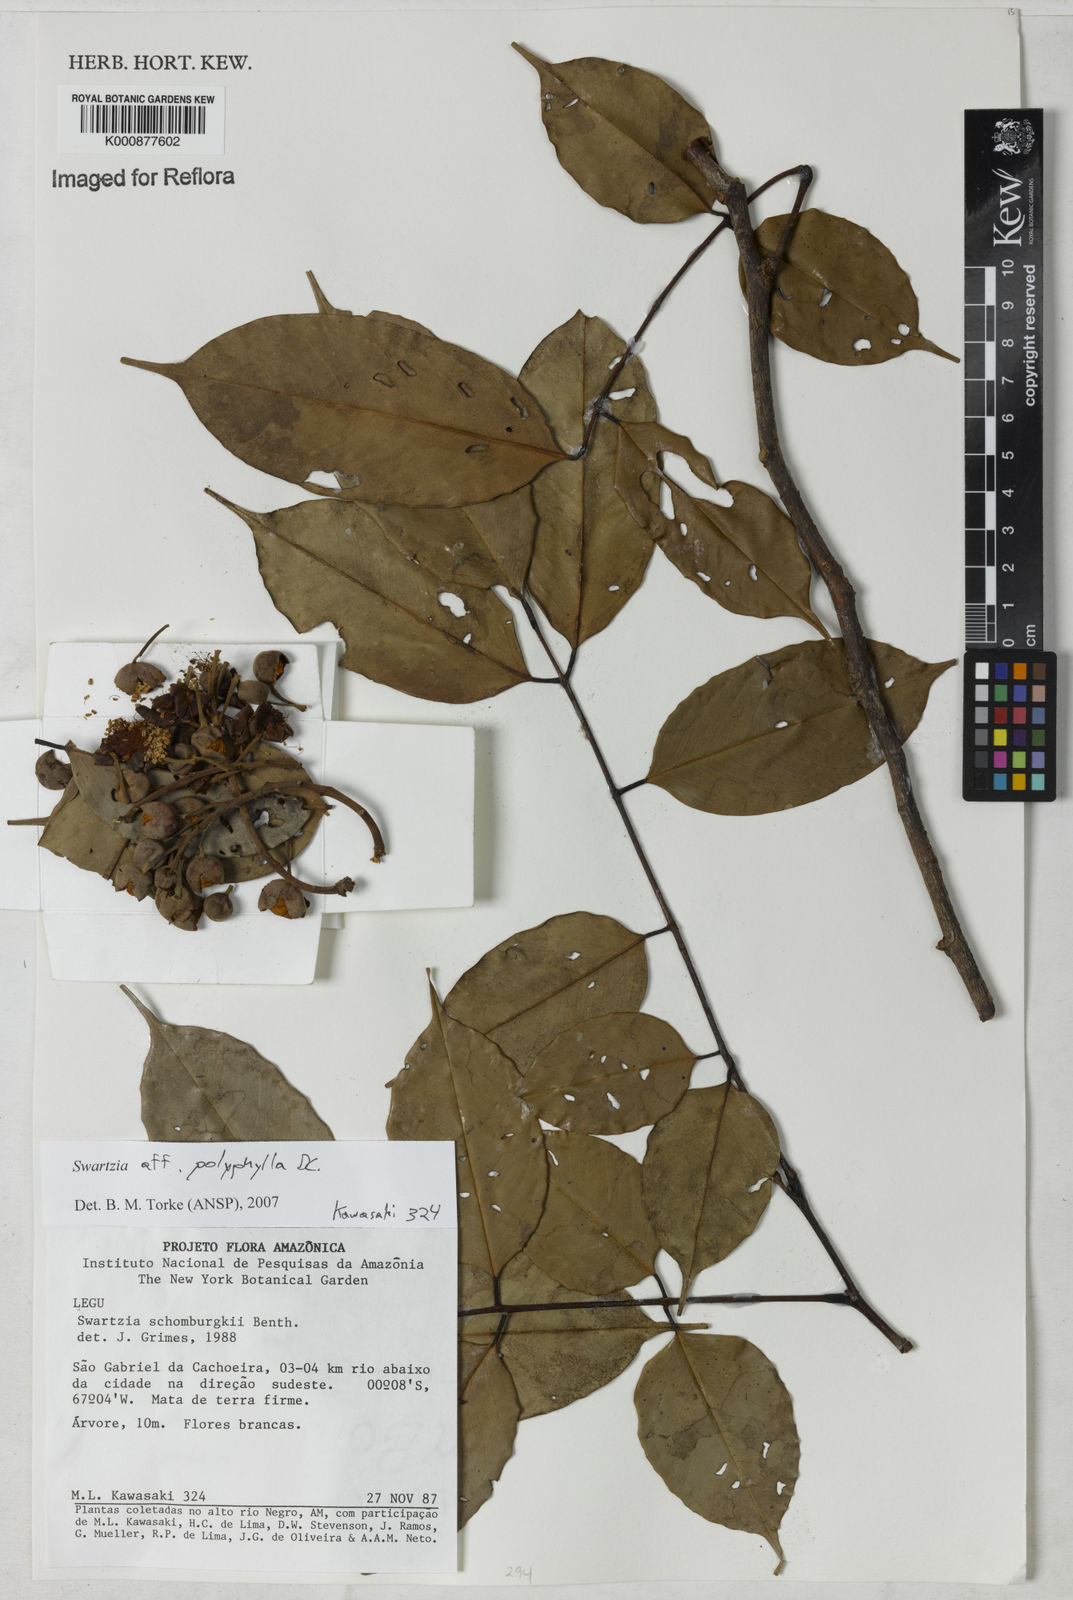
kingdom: Plantae
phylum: Tracheophyta
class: Magnoliopsida
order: Fabales
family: Fabaceae
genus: Swartzia
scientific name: Swartzia polyphylla
